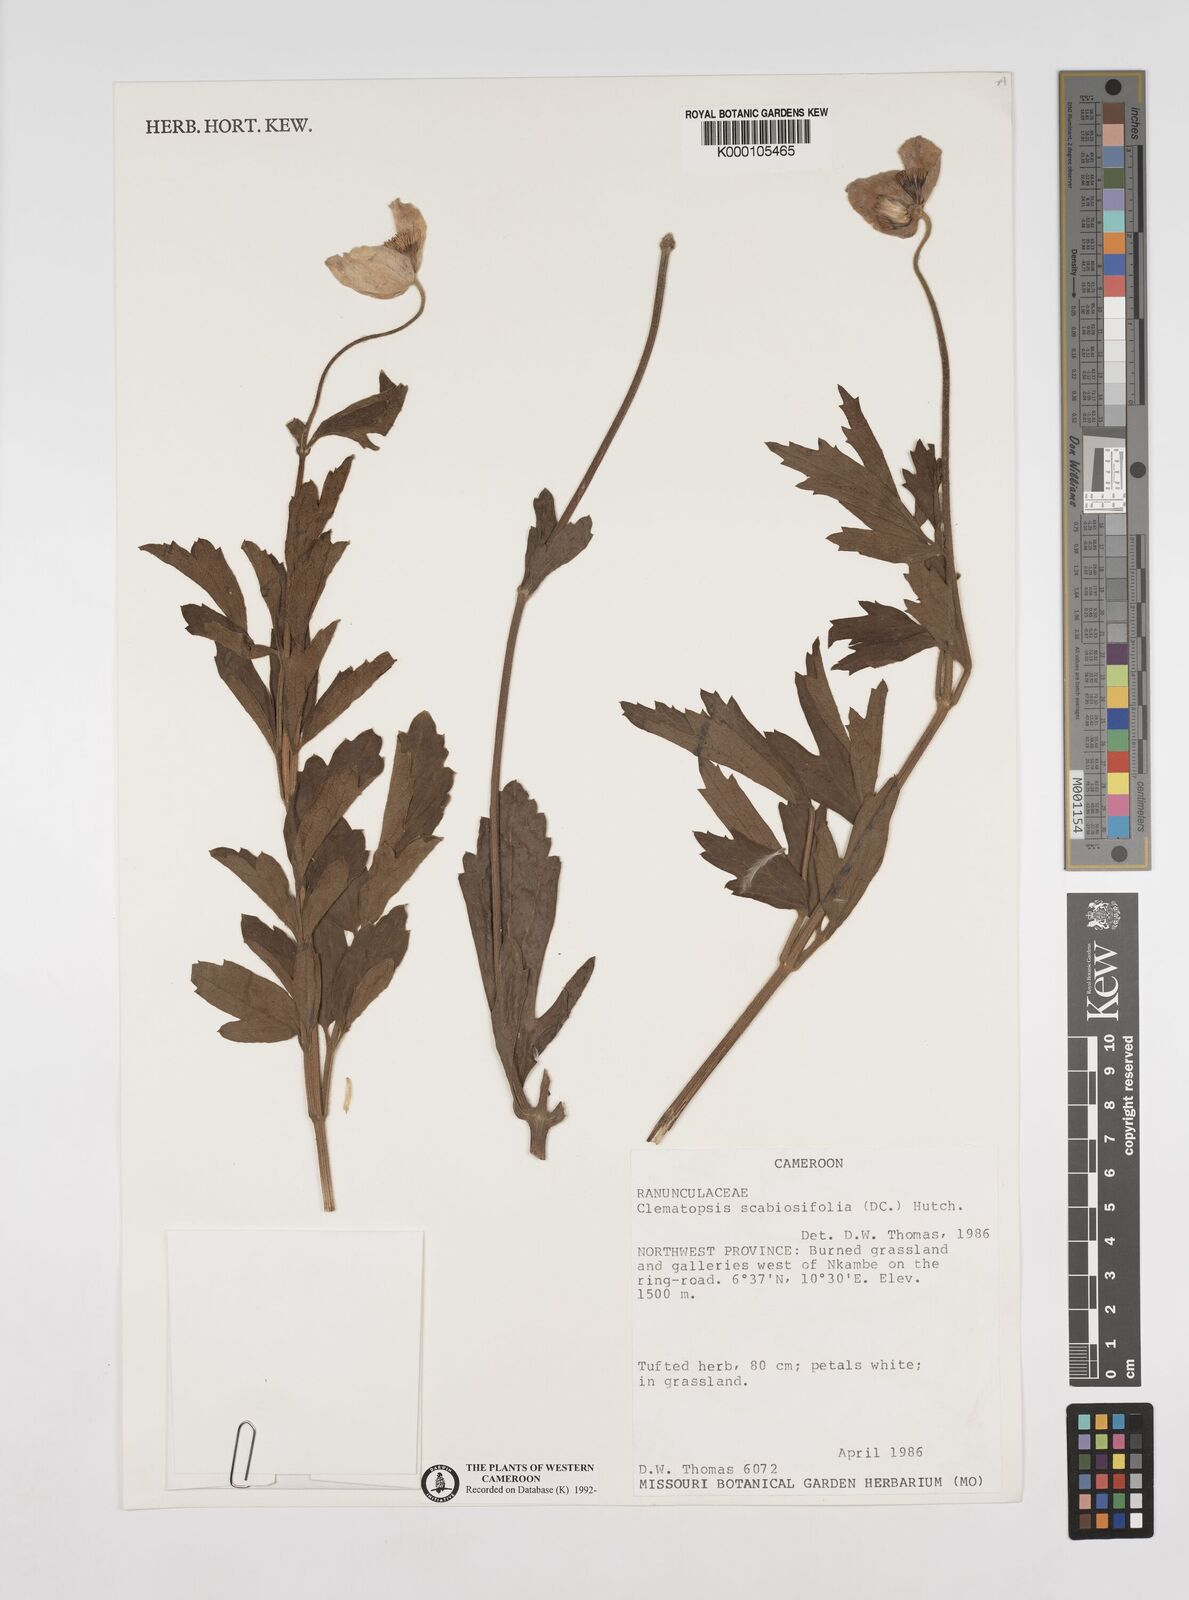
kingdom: Plantae
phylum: Tracheophyta
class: Magnoliopsida
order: Ranunculales
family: Ranunculaceae
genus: Clematis
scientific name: Clematis villosa
